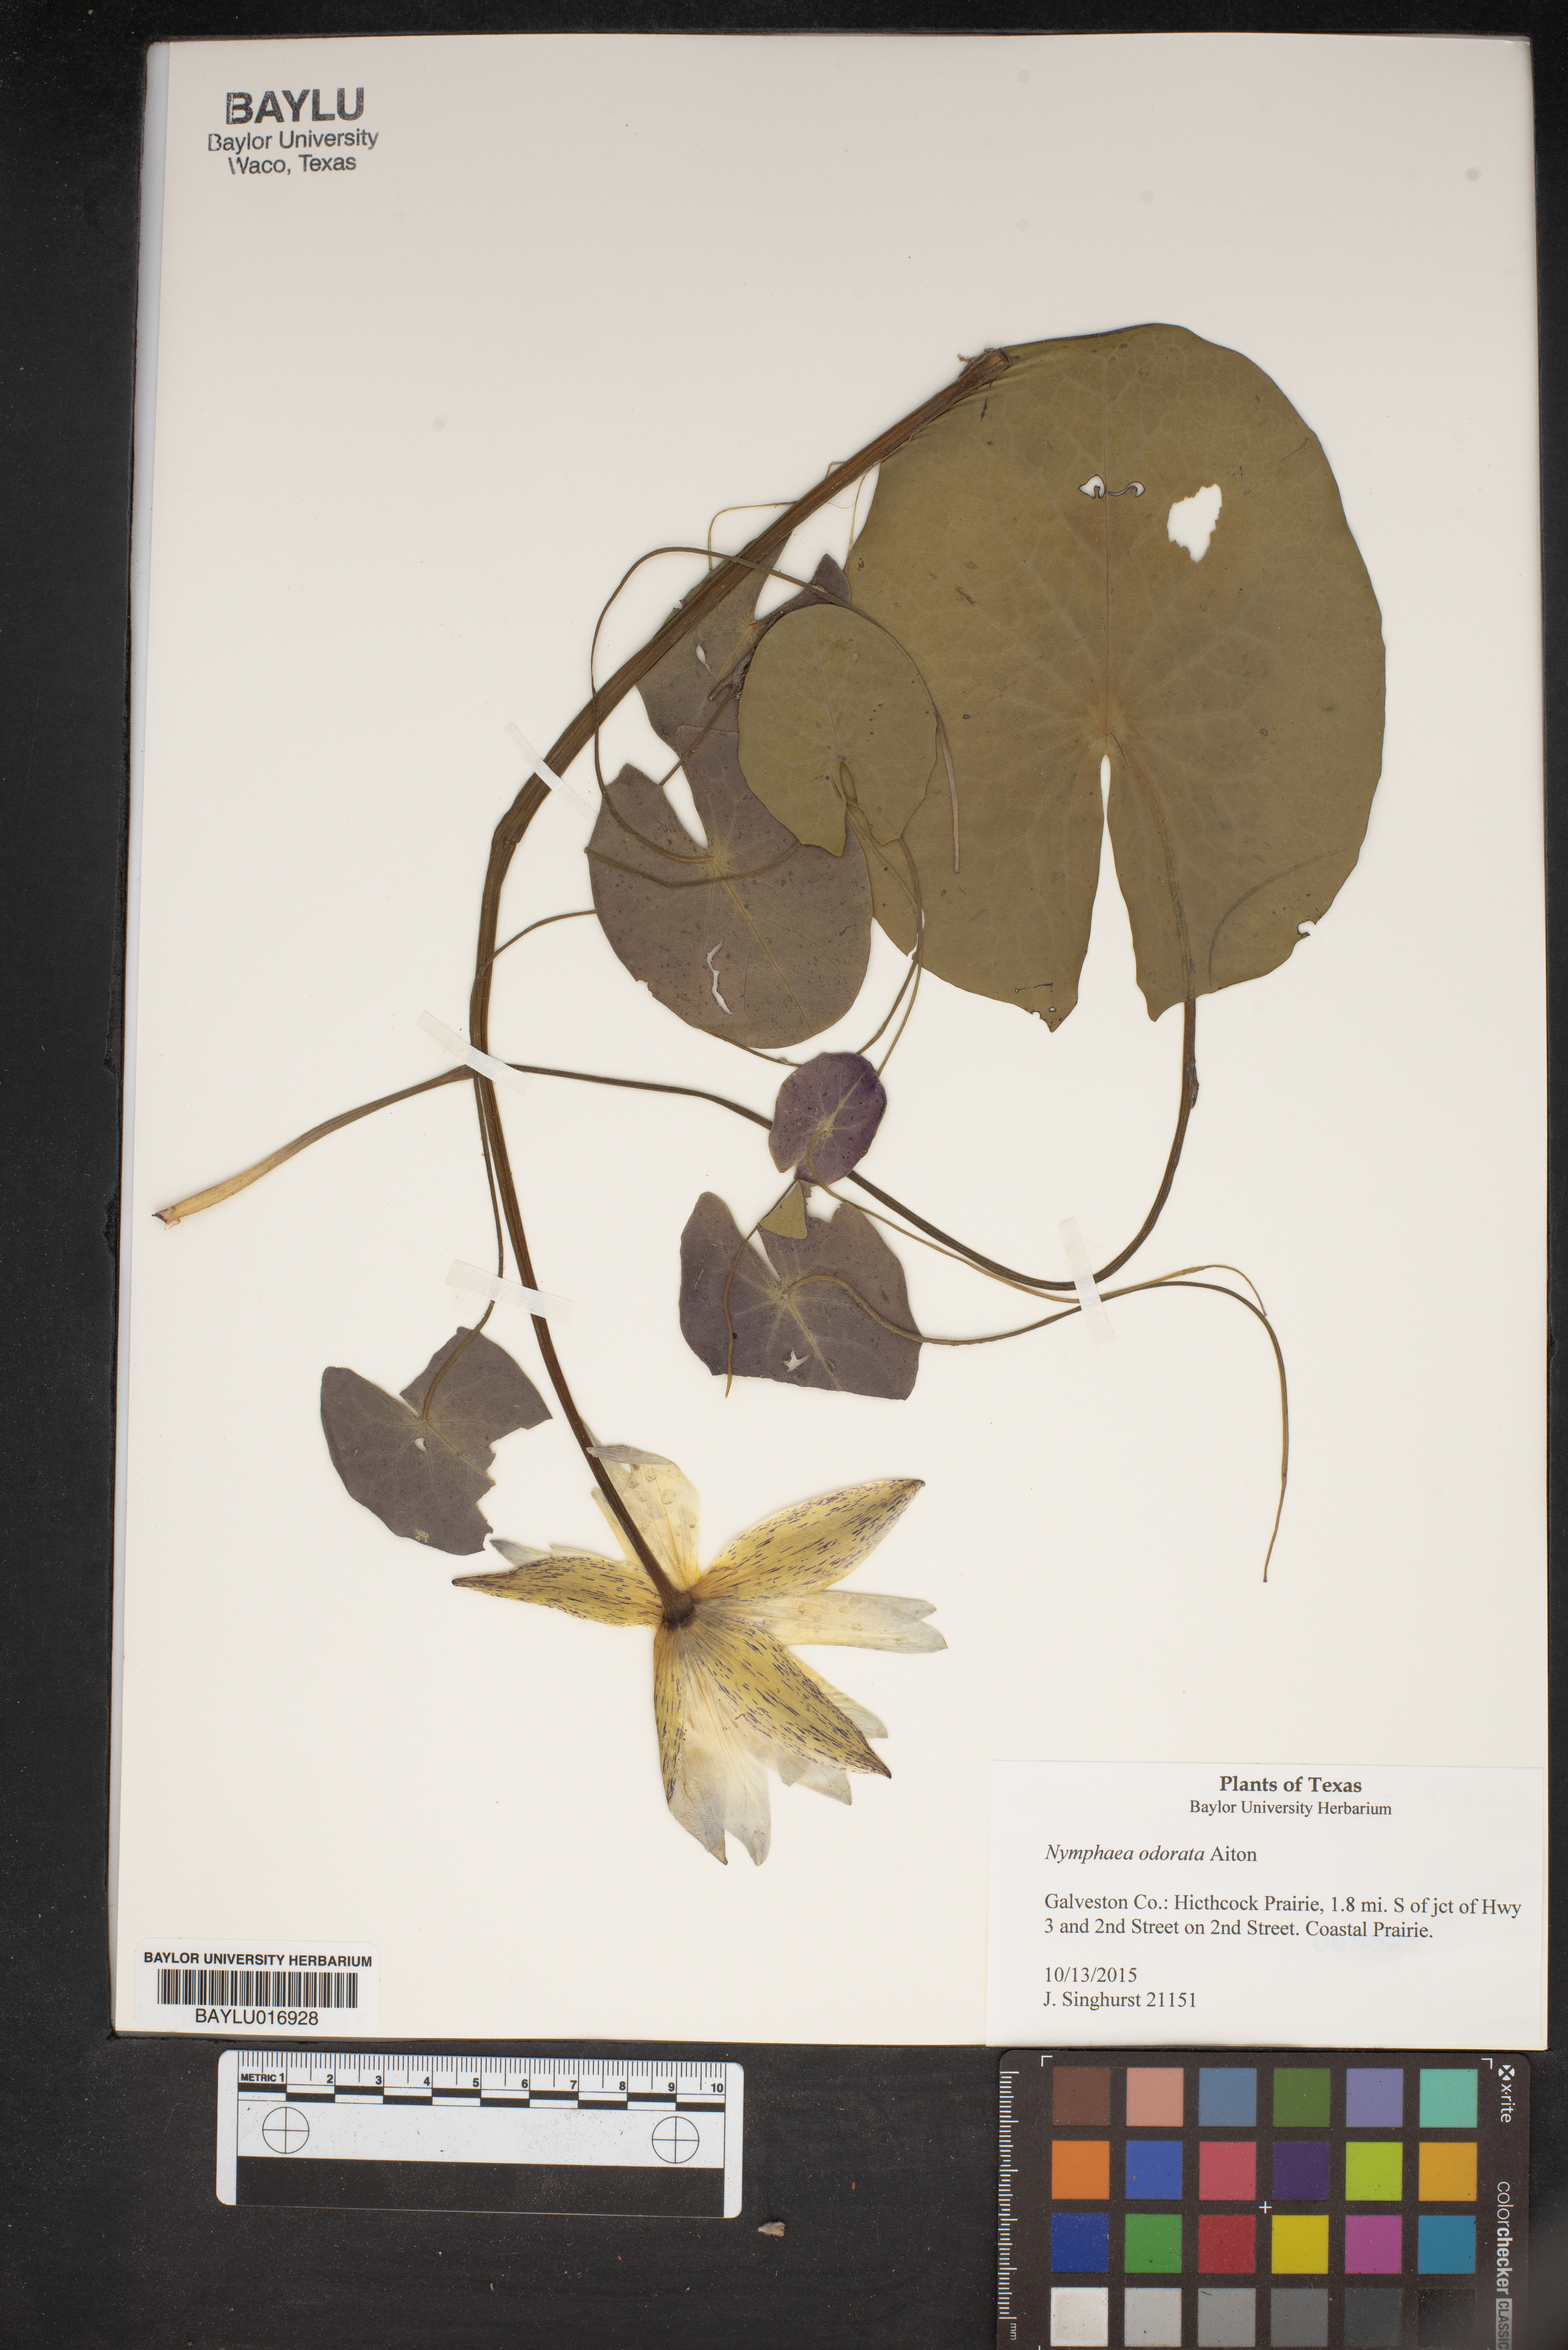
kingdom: Plantae
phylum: Tracheophyta
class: Magnoliopsida
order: Nymphaeales
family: Nymphaeaceae
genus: Nymphaea
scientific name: Nymphaea odorata
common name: Fragrant water-lily
